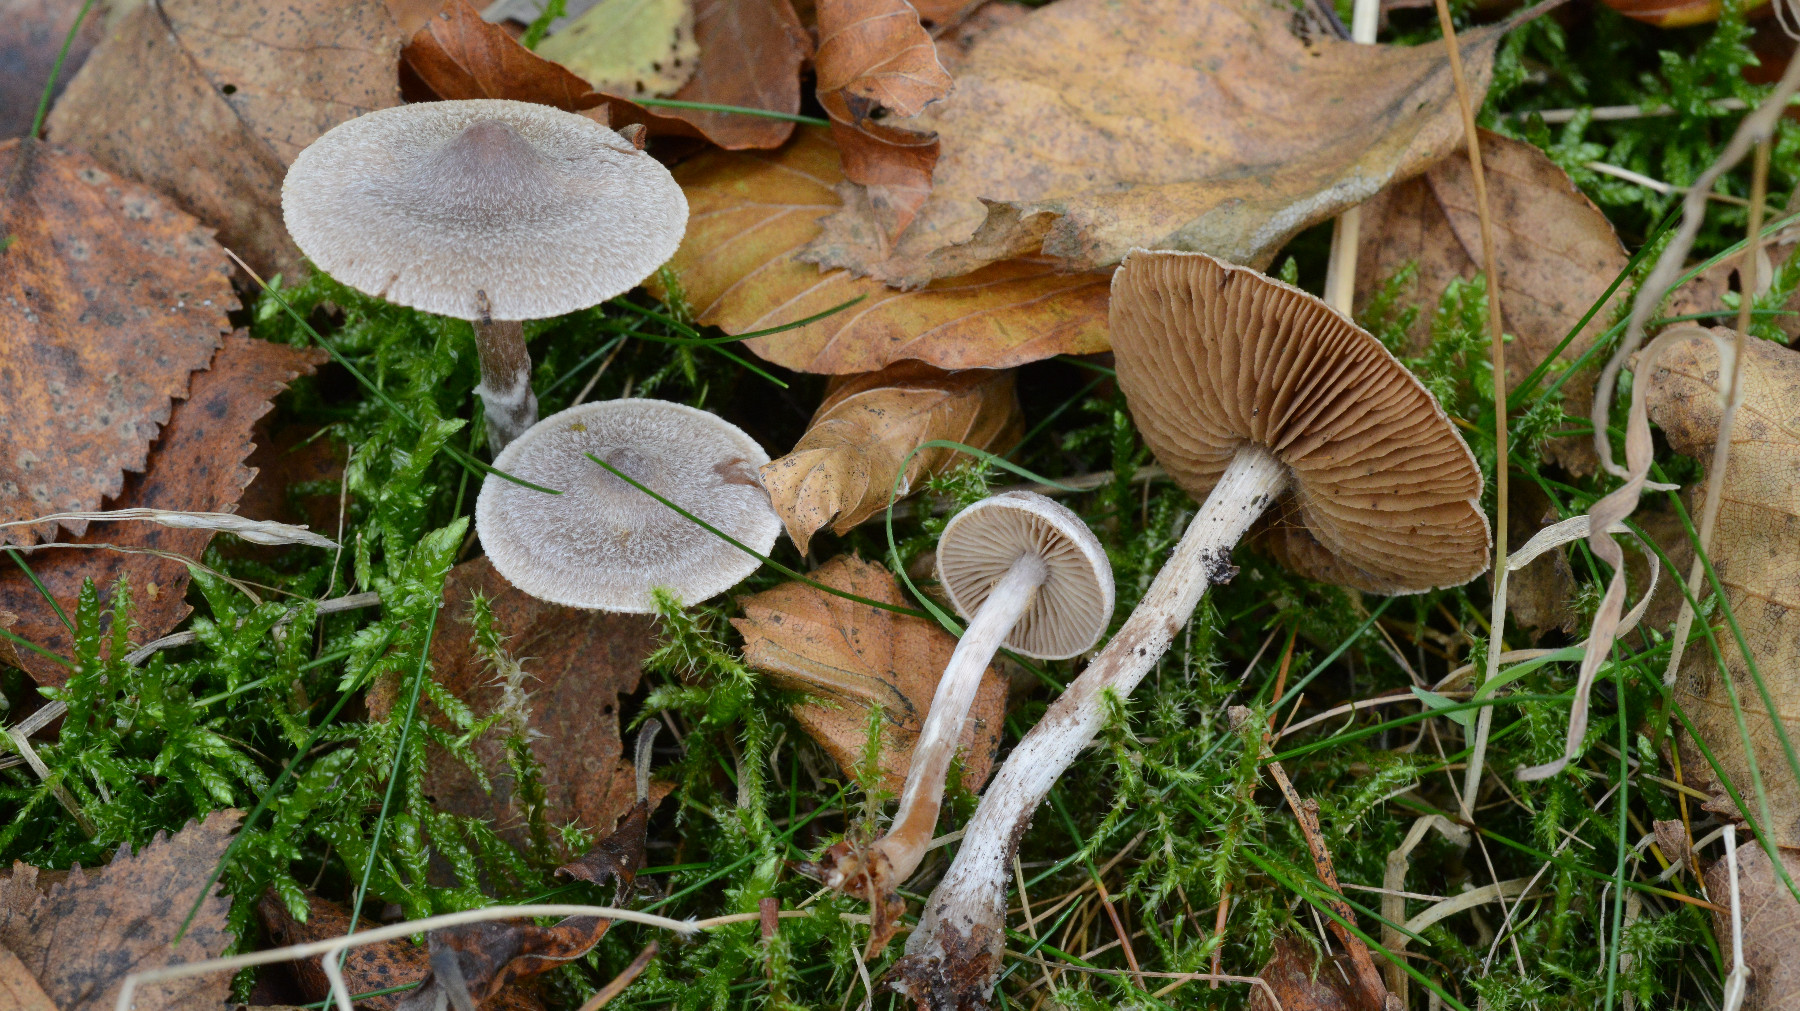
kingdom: Fungi
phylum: Basidiomycota
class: Agaricomycetes
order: Agaricales
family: Cortinariaceae
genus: Cortinarius
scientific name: Cortinarius hemitrichus
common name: hvidfnugget slørhat
